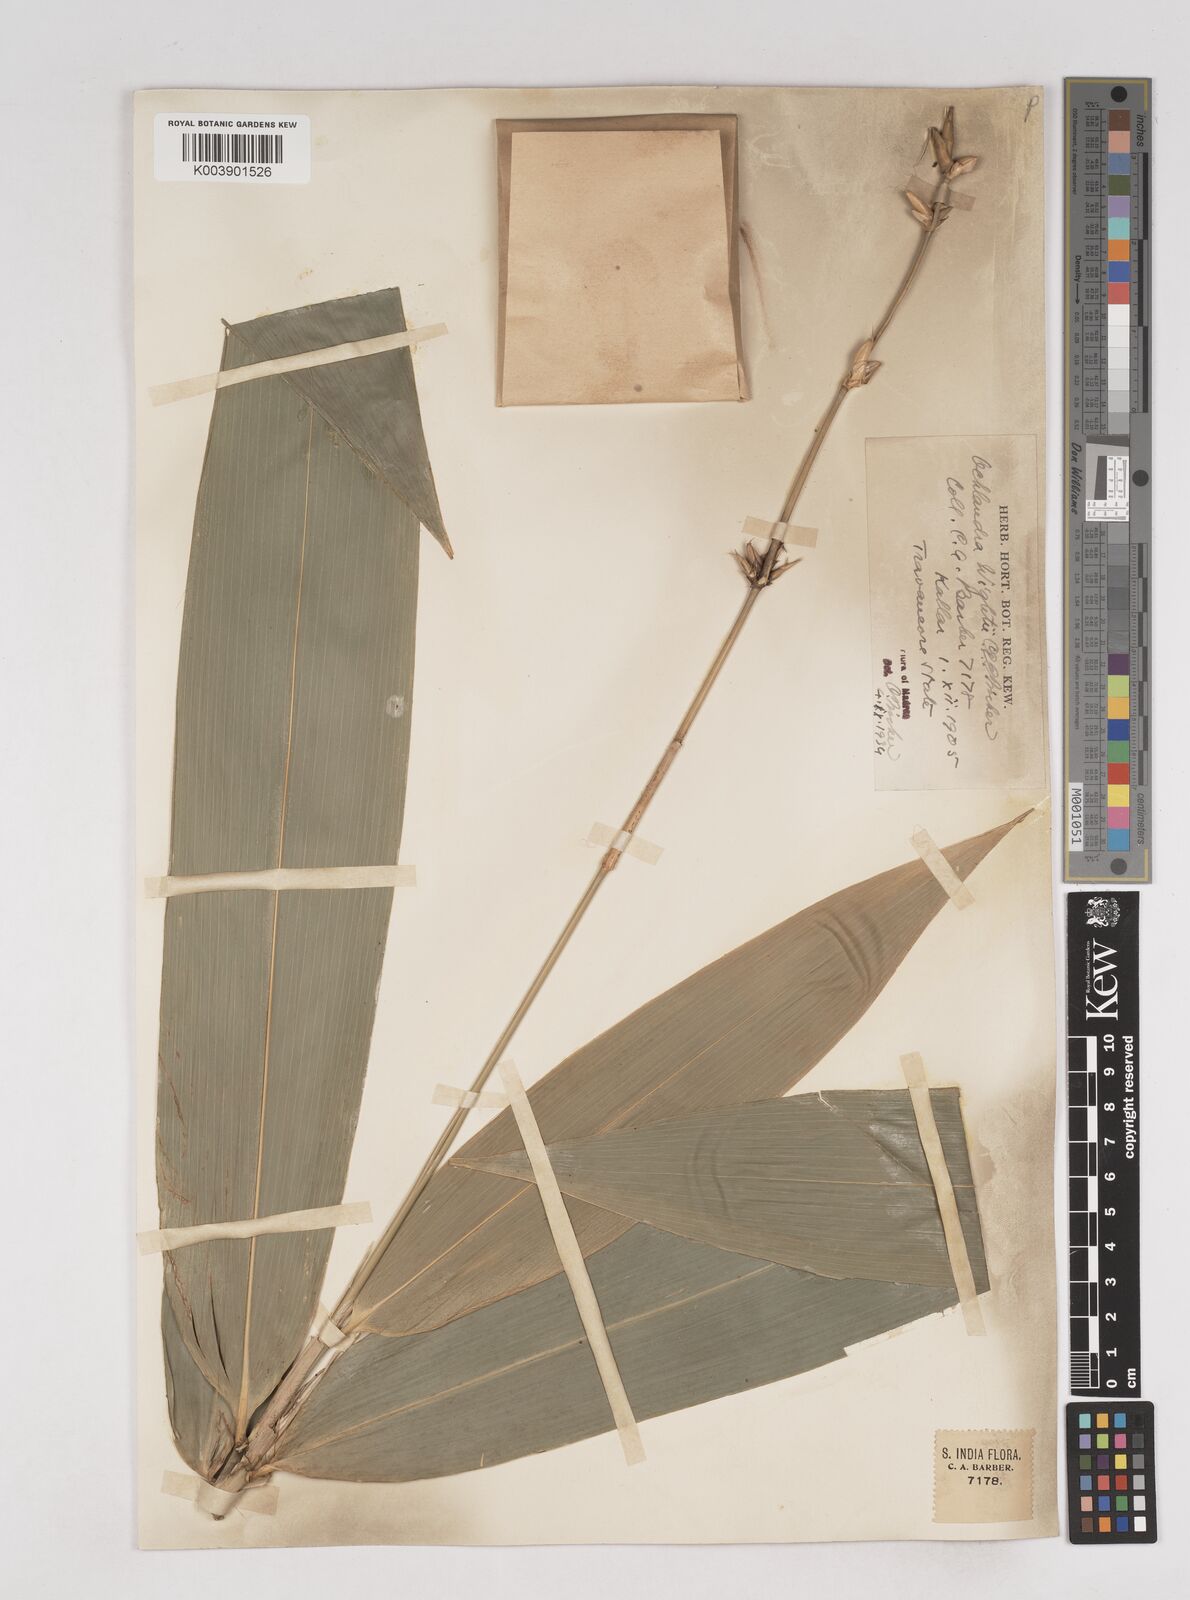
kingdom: Plantae
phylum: Tracheophyta
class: Liliopsida
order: Poales
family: Poaceae
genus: Ochlandra
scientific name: Ochlandra wightii
